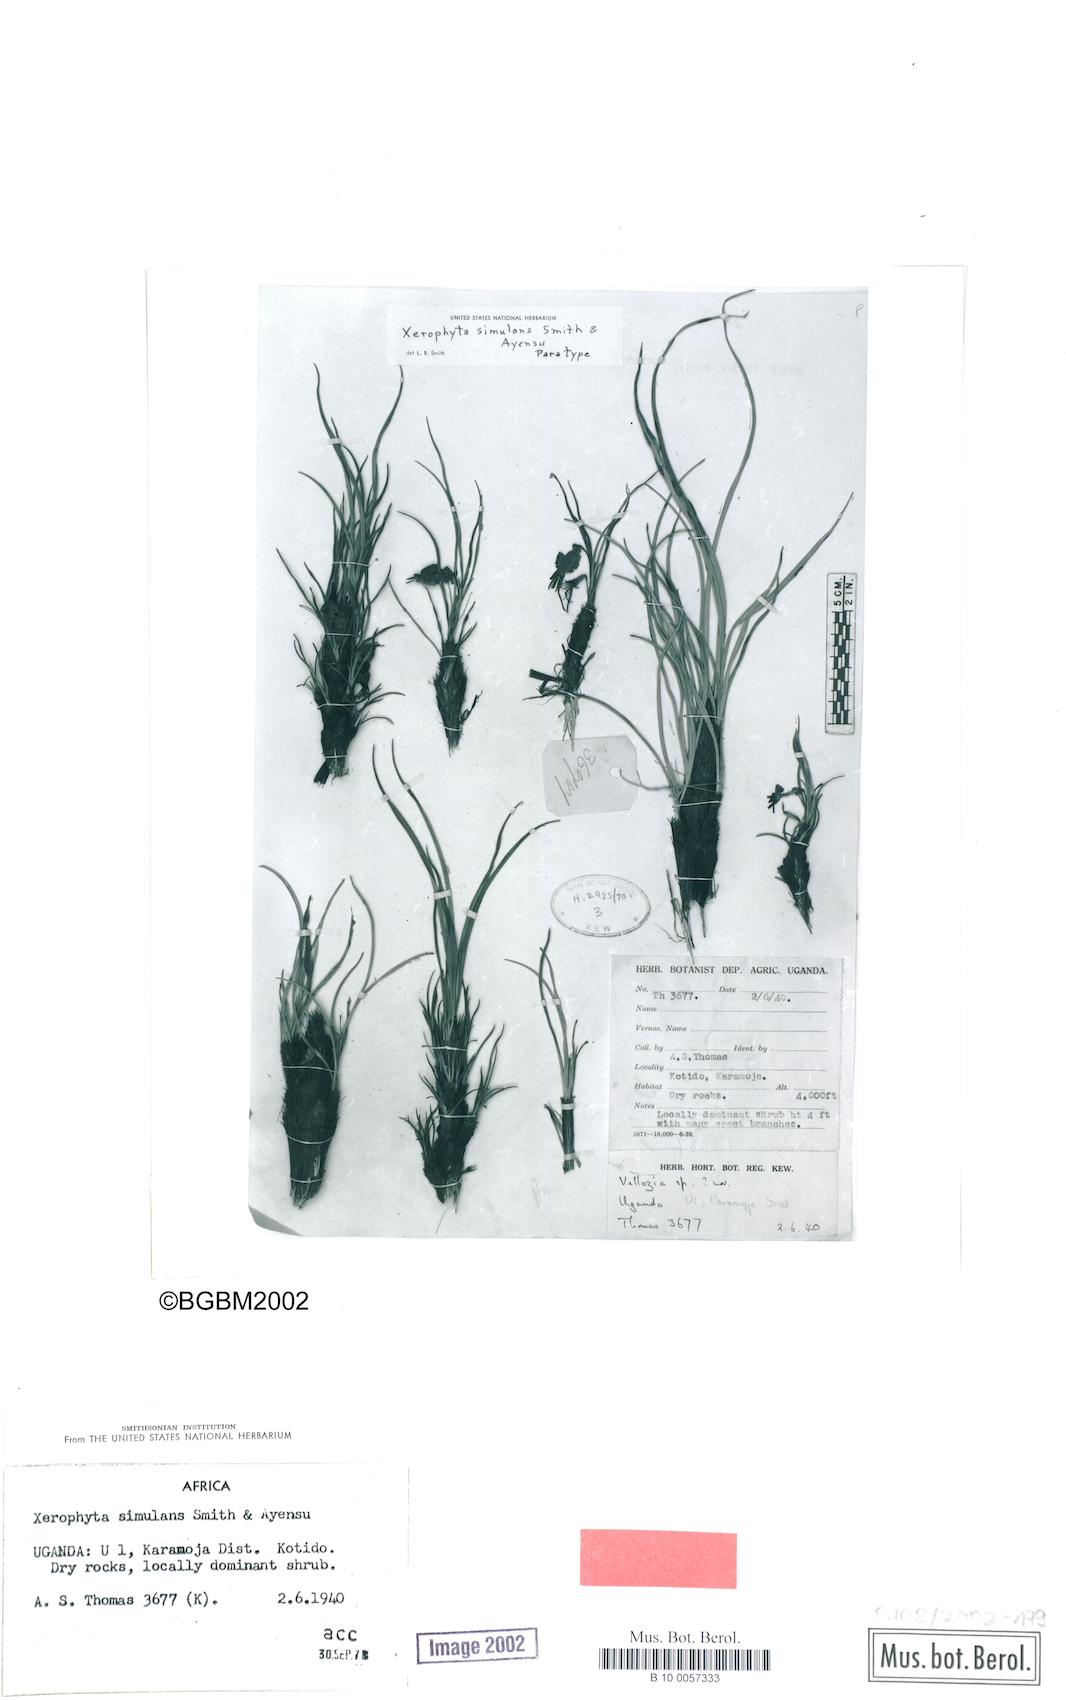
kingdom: Plantae
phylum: Tracheophyta
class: Liliopsida
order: Pandanales
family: Velloziaceae
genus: Xerophyta
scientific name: Xerophyta simulans
